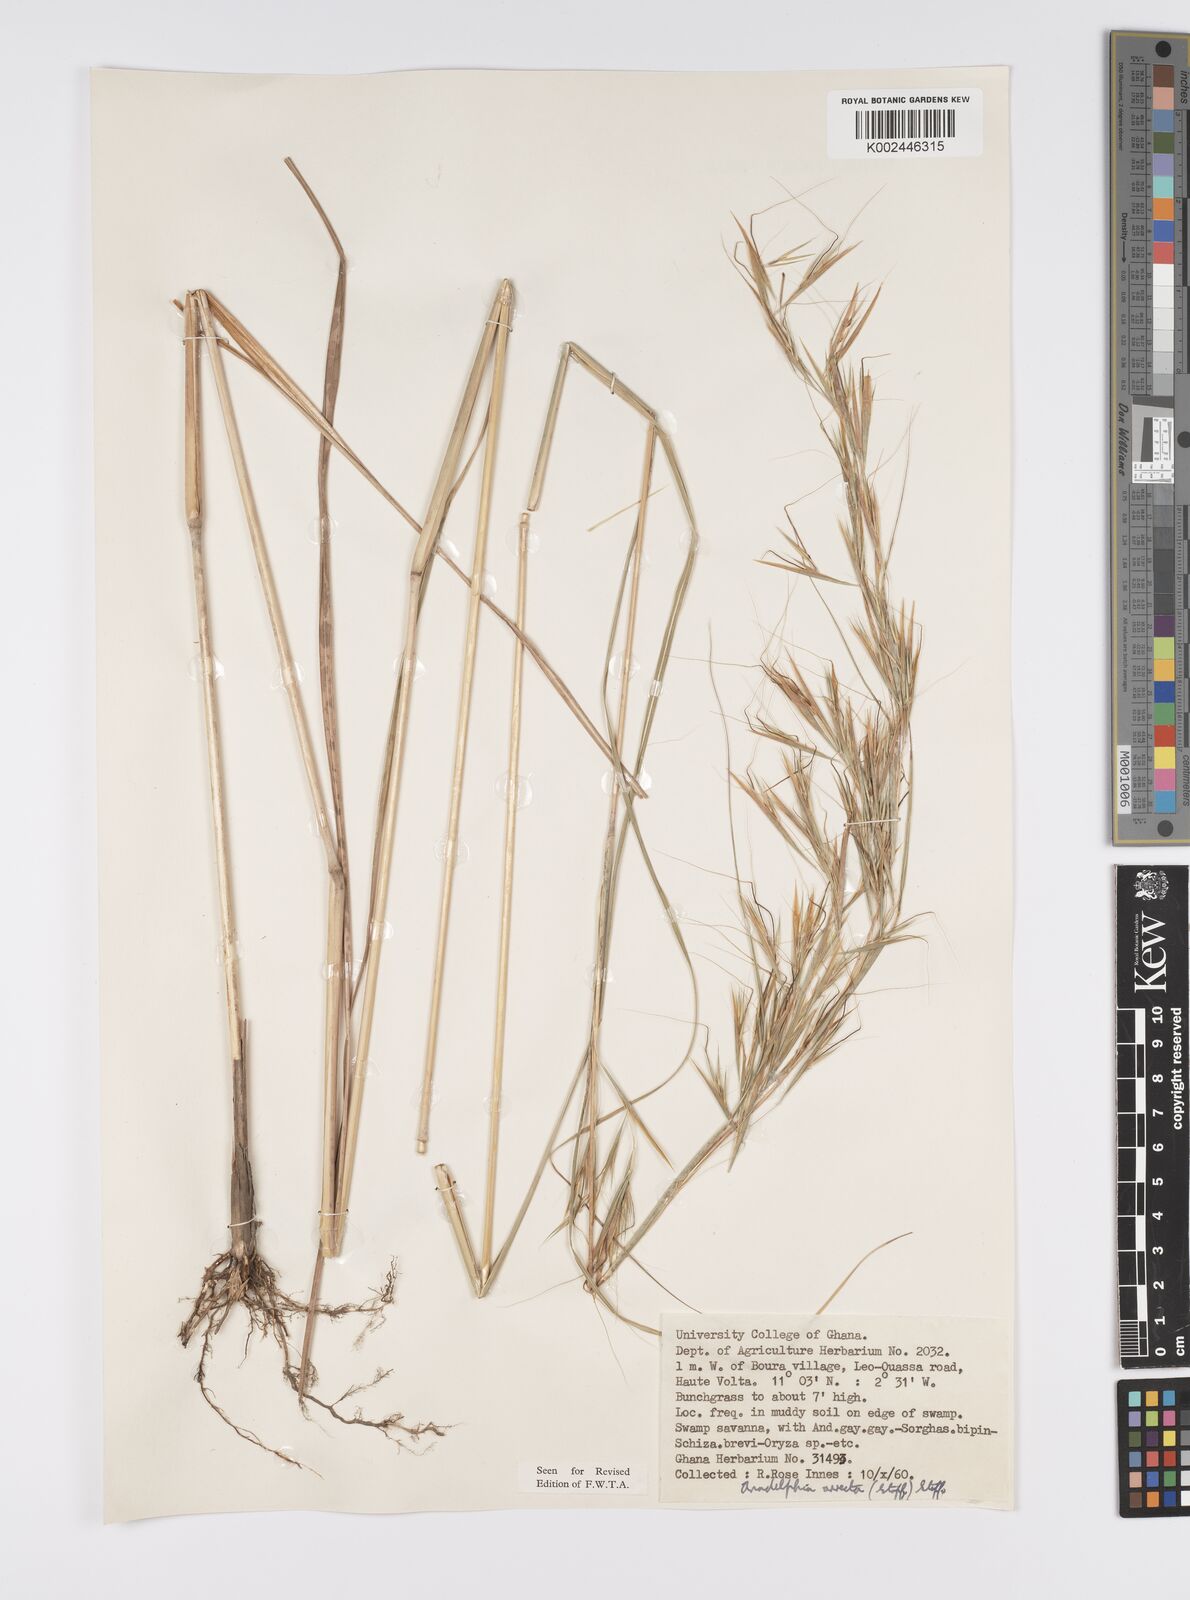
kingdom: Plantae
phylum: Tracheophyta
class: Liliopsida
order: Poales
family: Poaceae
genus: Anadelphia
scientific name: Anadelphia afzeliana
